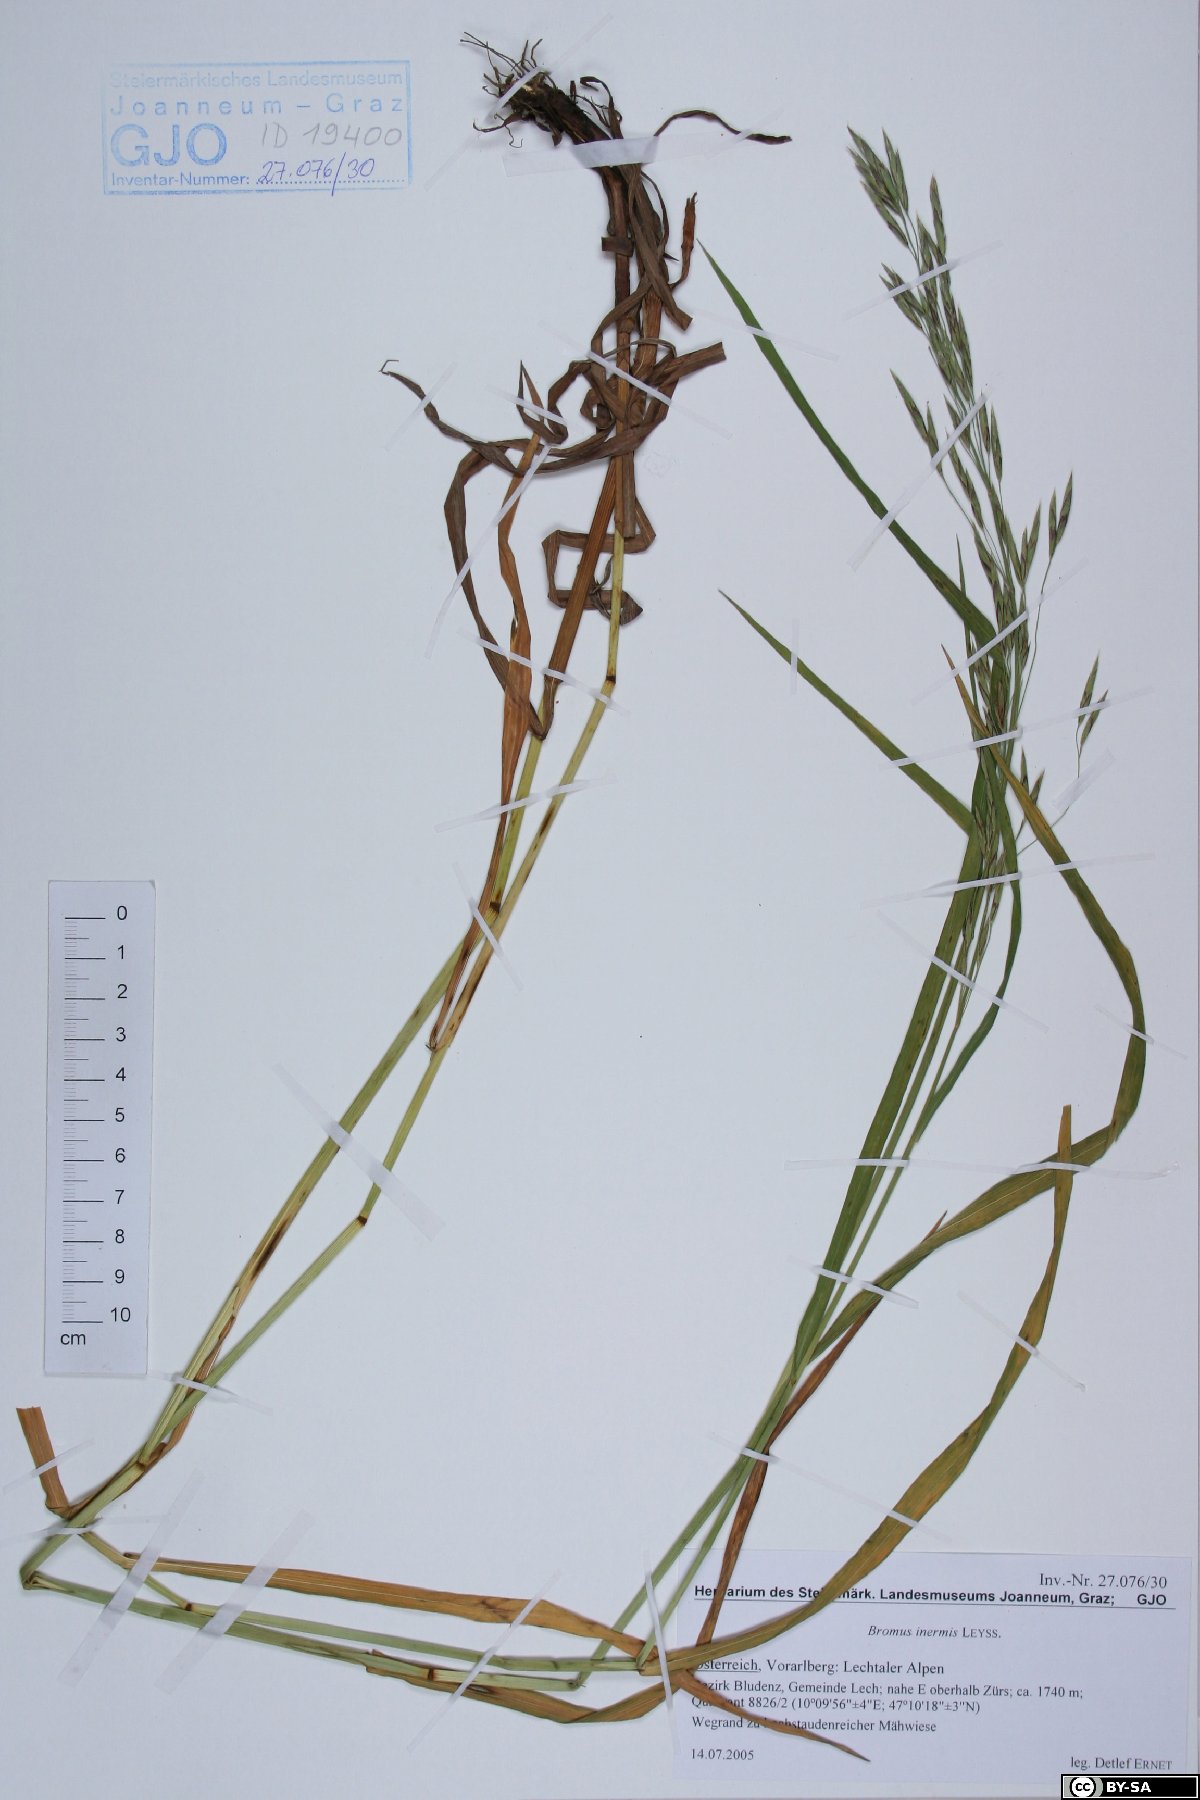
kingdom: Plantae
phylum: Tracheophyta
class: Liliopsida
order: Poales
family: Poaceae
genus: Bromus
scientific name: Bromus inermis
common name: Smooth brome
